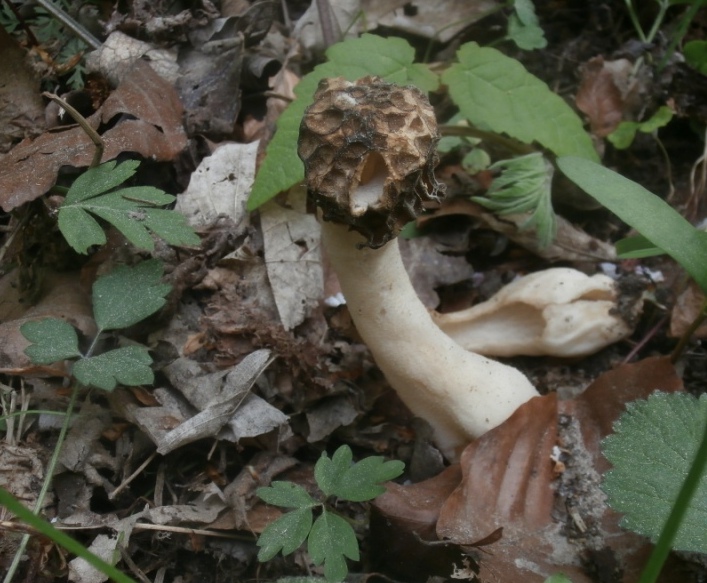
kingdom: Fungi
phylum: Ascomycota
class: Pezizomycetes
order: Pezizales
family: Morchellaceae
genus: Morchella
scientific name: Morchella semilibera
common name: hætte-morkel
